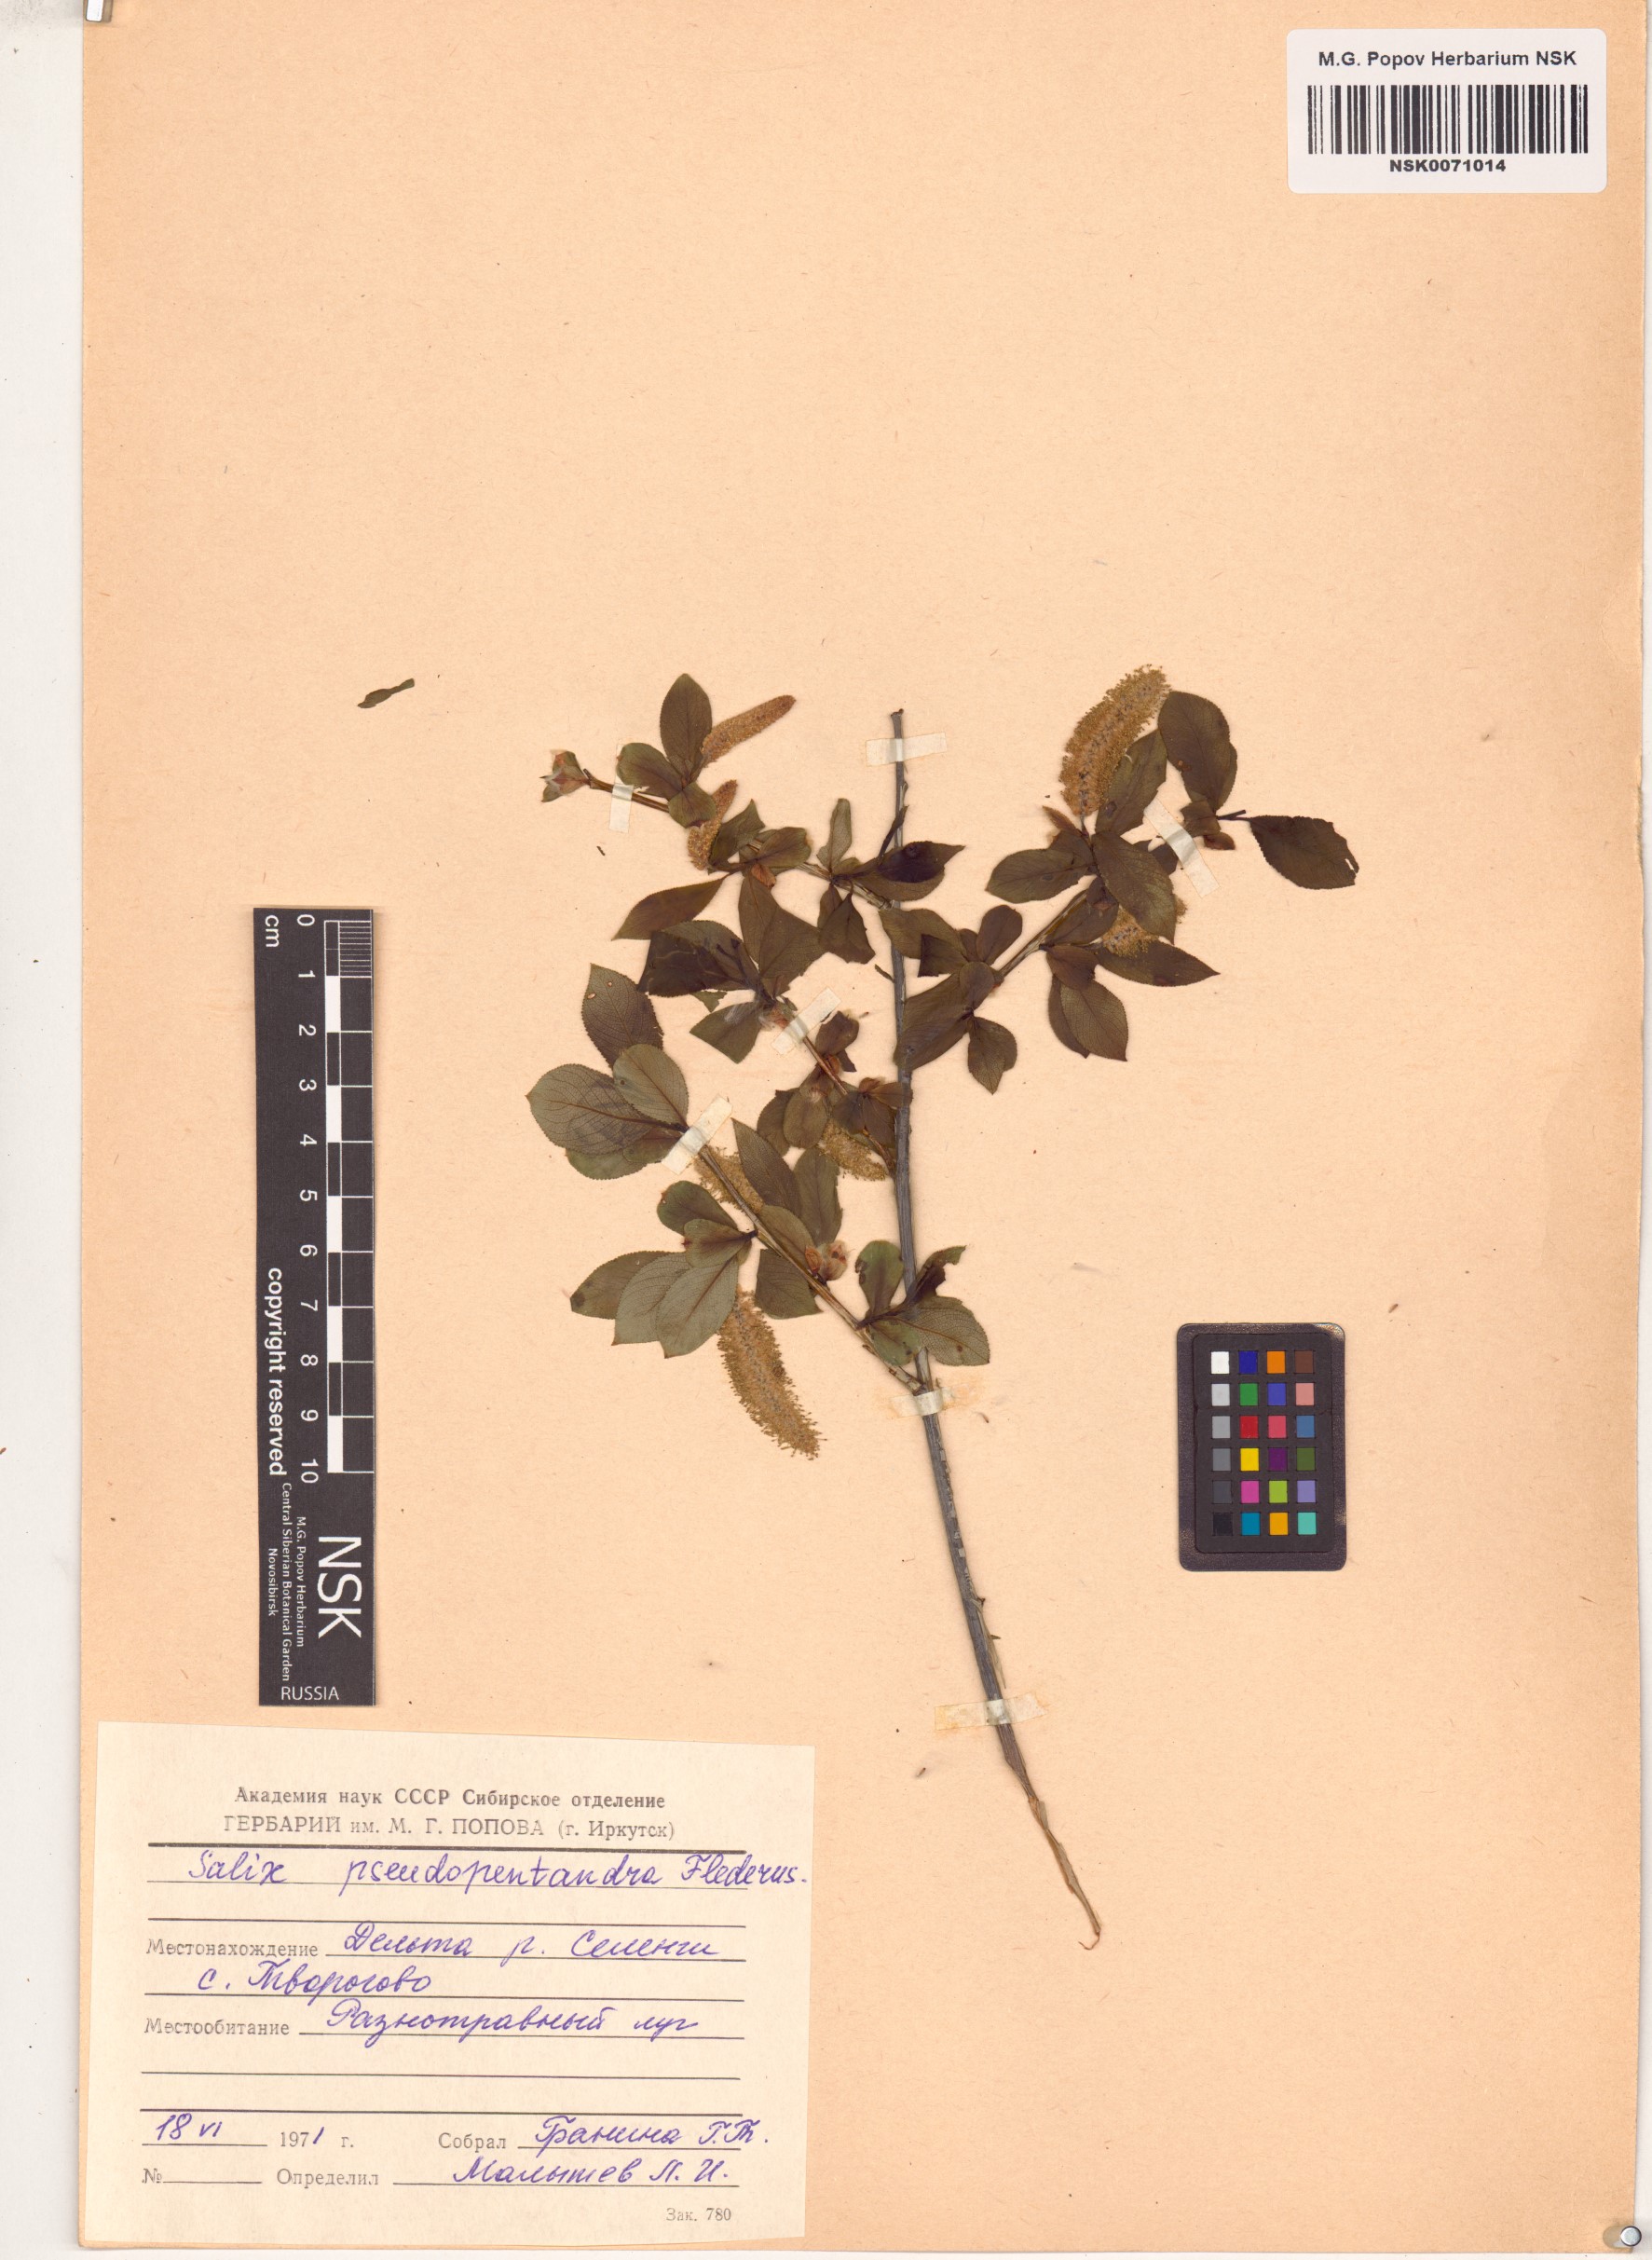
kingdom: Plantae
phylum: Tracheophyta
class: Magnoliopsida
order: Malpighiales
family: Salicaceae
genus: Salix
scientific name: Salix pseudopentandra
